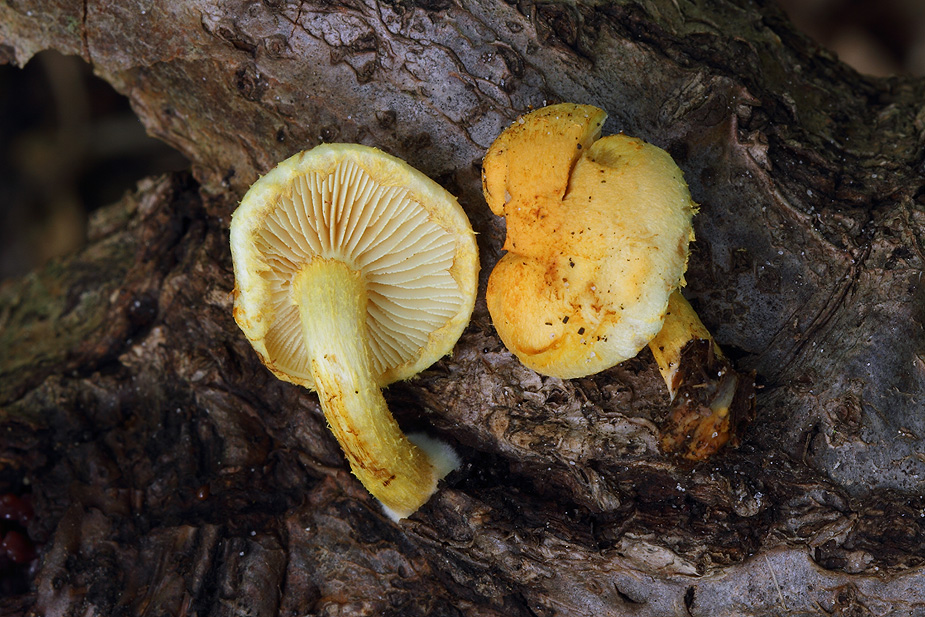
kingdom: Fungi
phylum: Basidiomycota
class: Agaricomycetes
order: Agaricales
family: Strophariaceae
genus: Pholiota
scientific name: Pholiota tuberculosa
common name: finskællet skælhat
